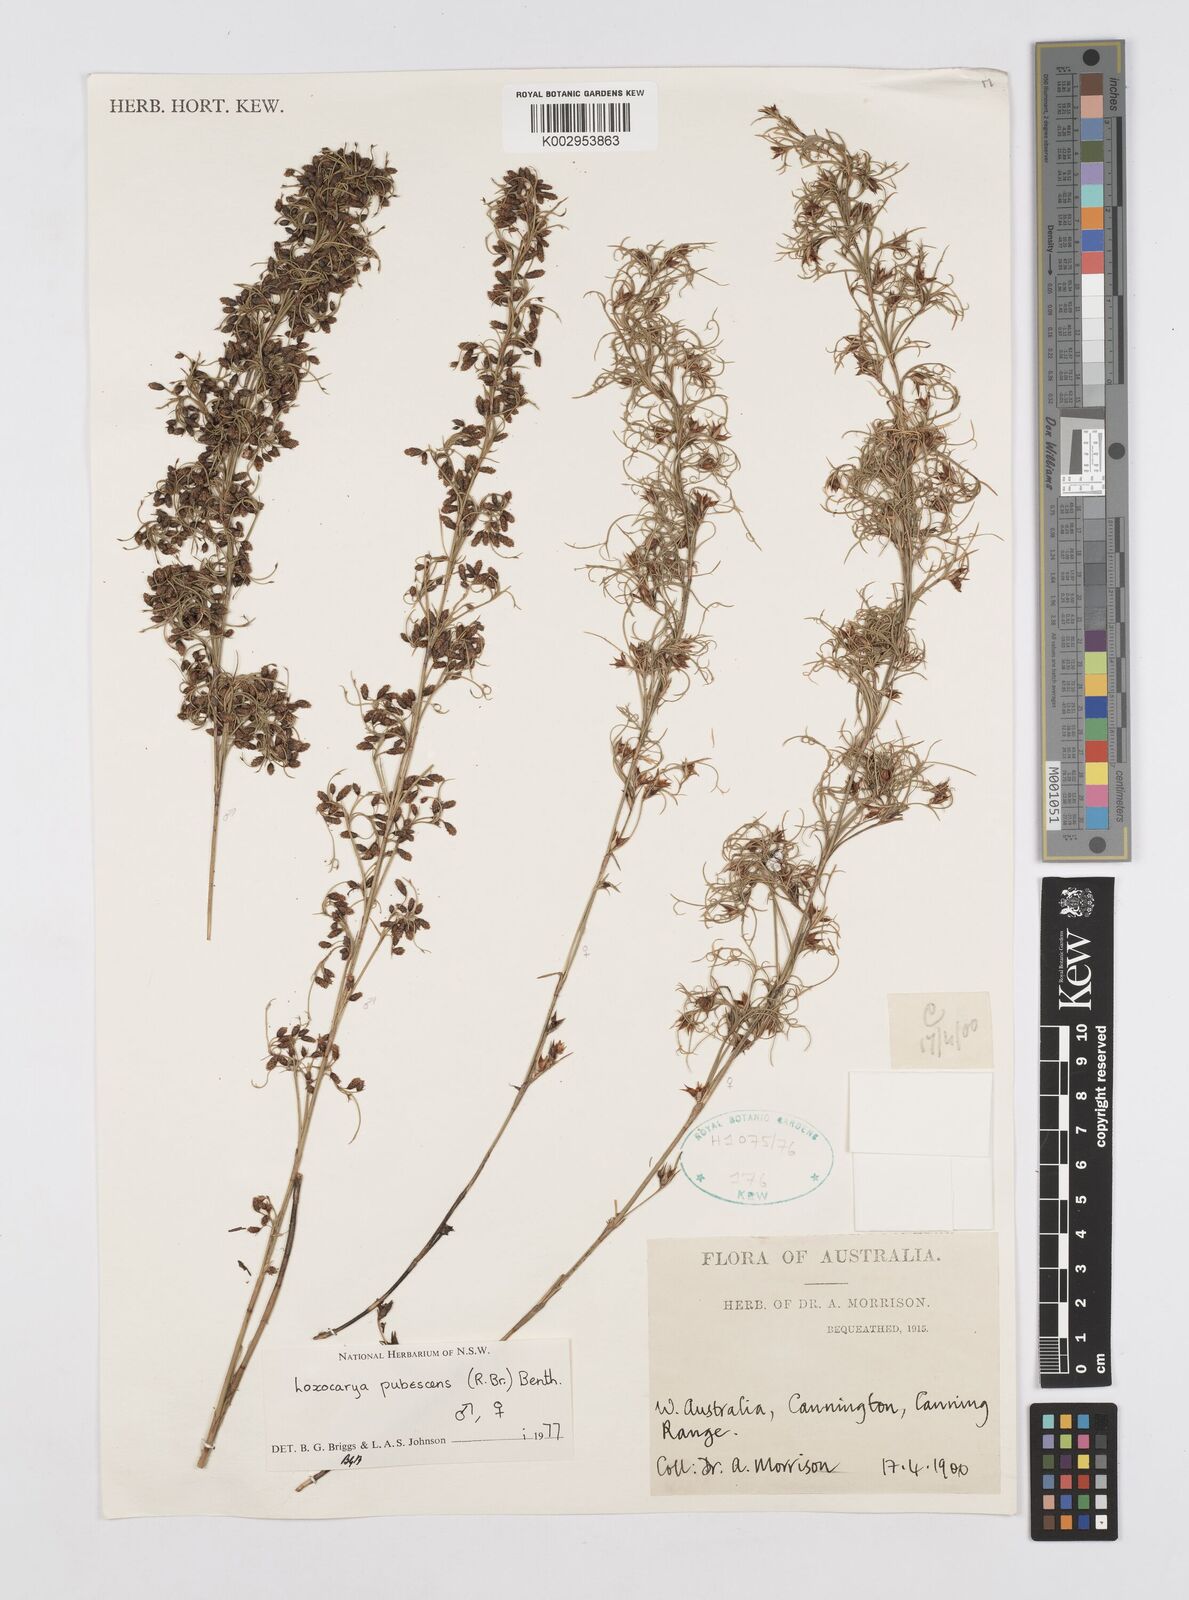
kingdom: Plantae
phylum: Tracheophyta
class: Liliopsida
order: Poales
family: Restionaceae
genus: Hypolaena
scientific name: Hypolaena pubescens
